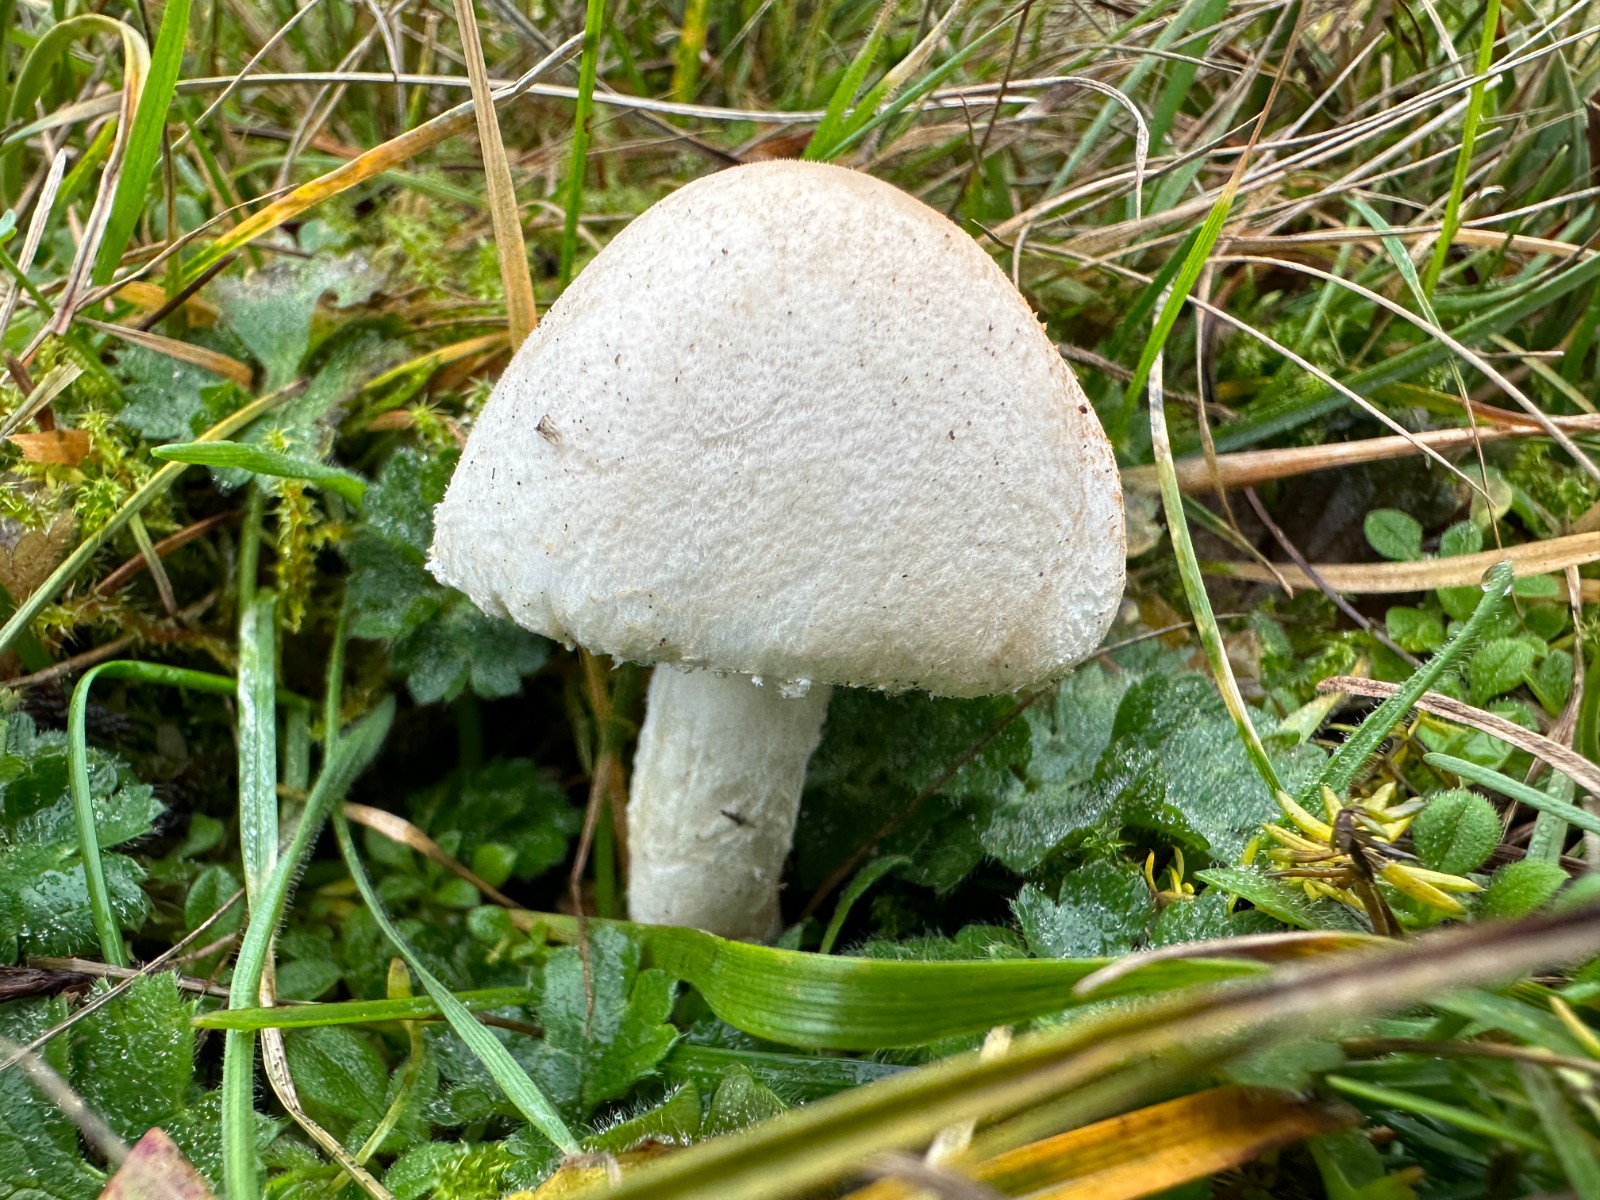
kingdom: Fungi
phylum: Basidiomycota
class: Agaricomycetes
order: Agaricales
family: Agaricaceae
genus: Leucoagaricus
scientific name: Leucoagaricus leucothites
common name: rosabladet silkehat
